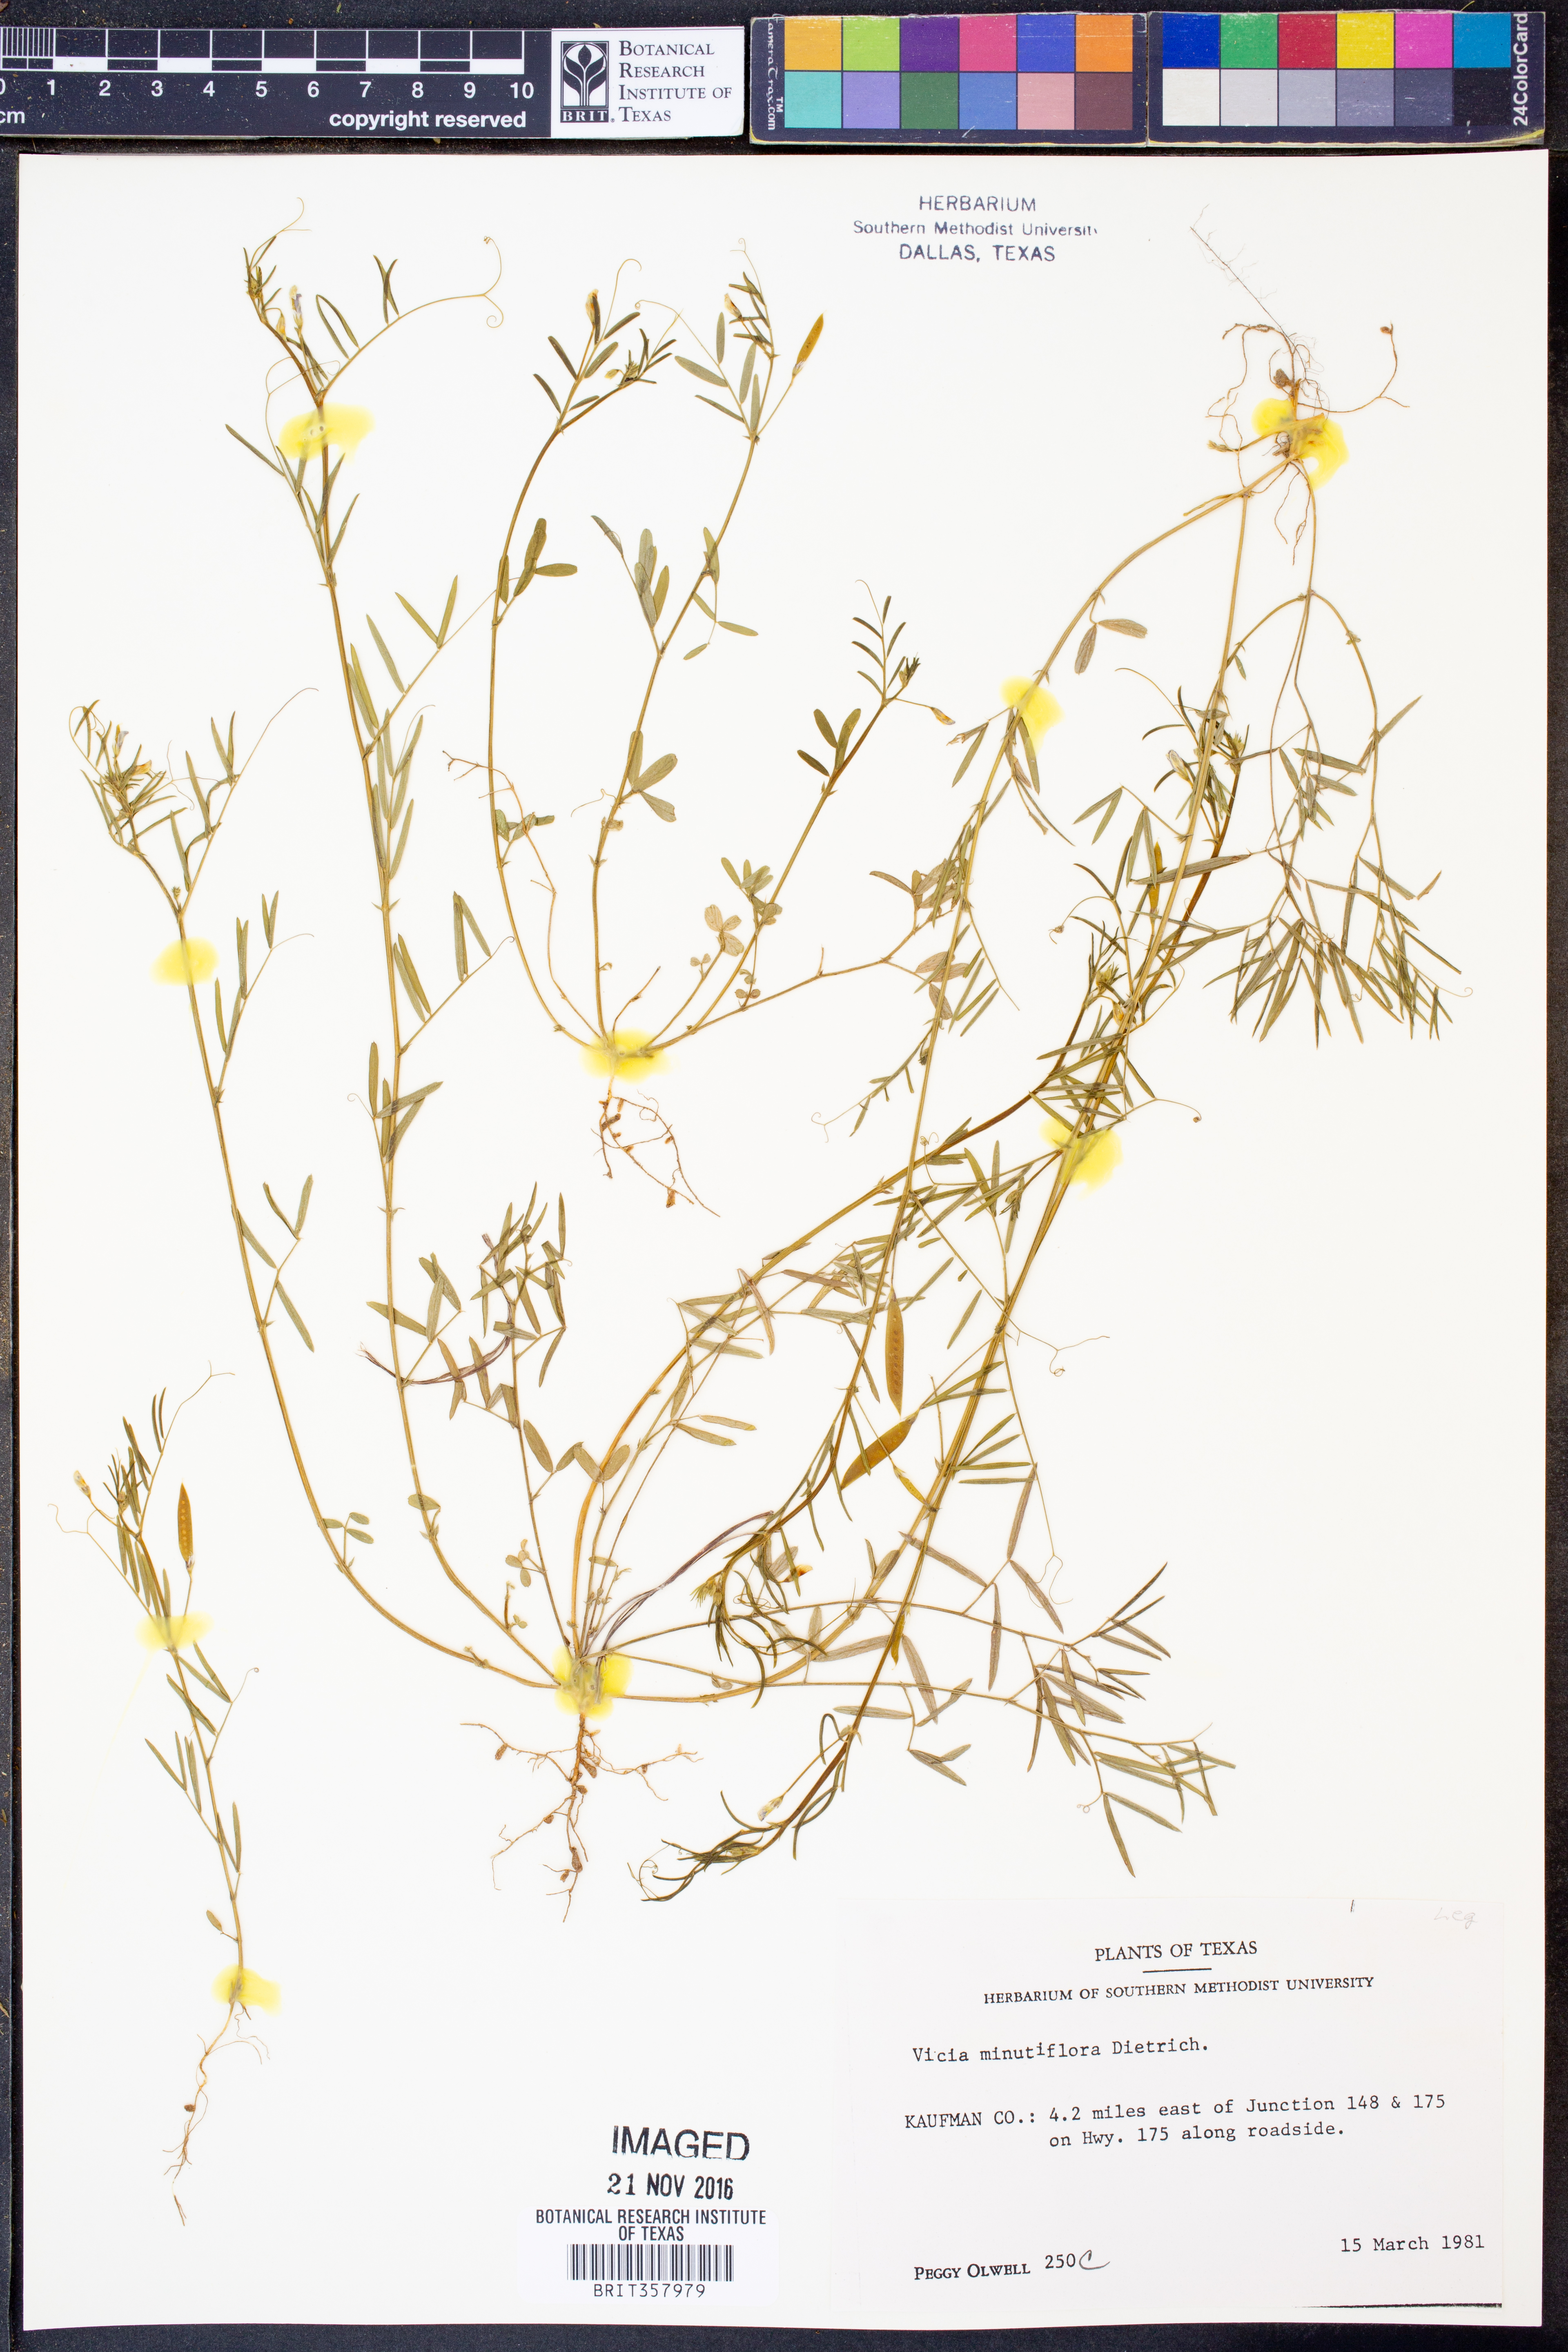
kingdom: Plantae
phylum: Tracheophyta
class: Magnoliopsida
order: Fabales
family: Fabaceae
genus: Vicia
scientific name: Vicia minutiflora
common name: Pygmy-flower vetch
